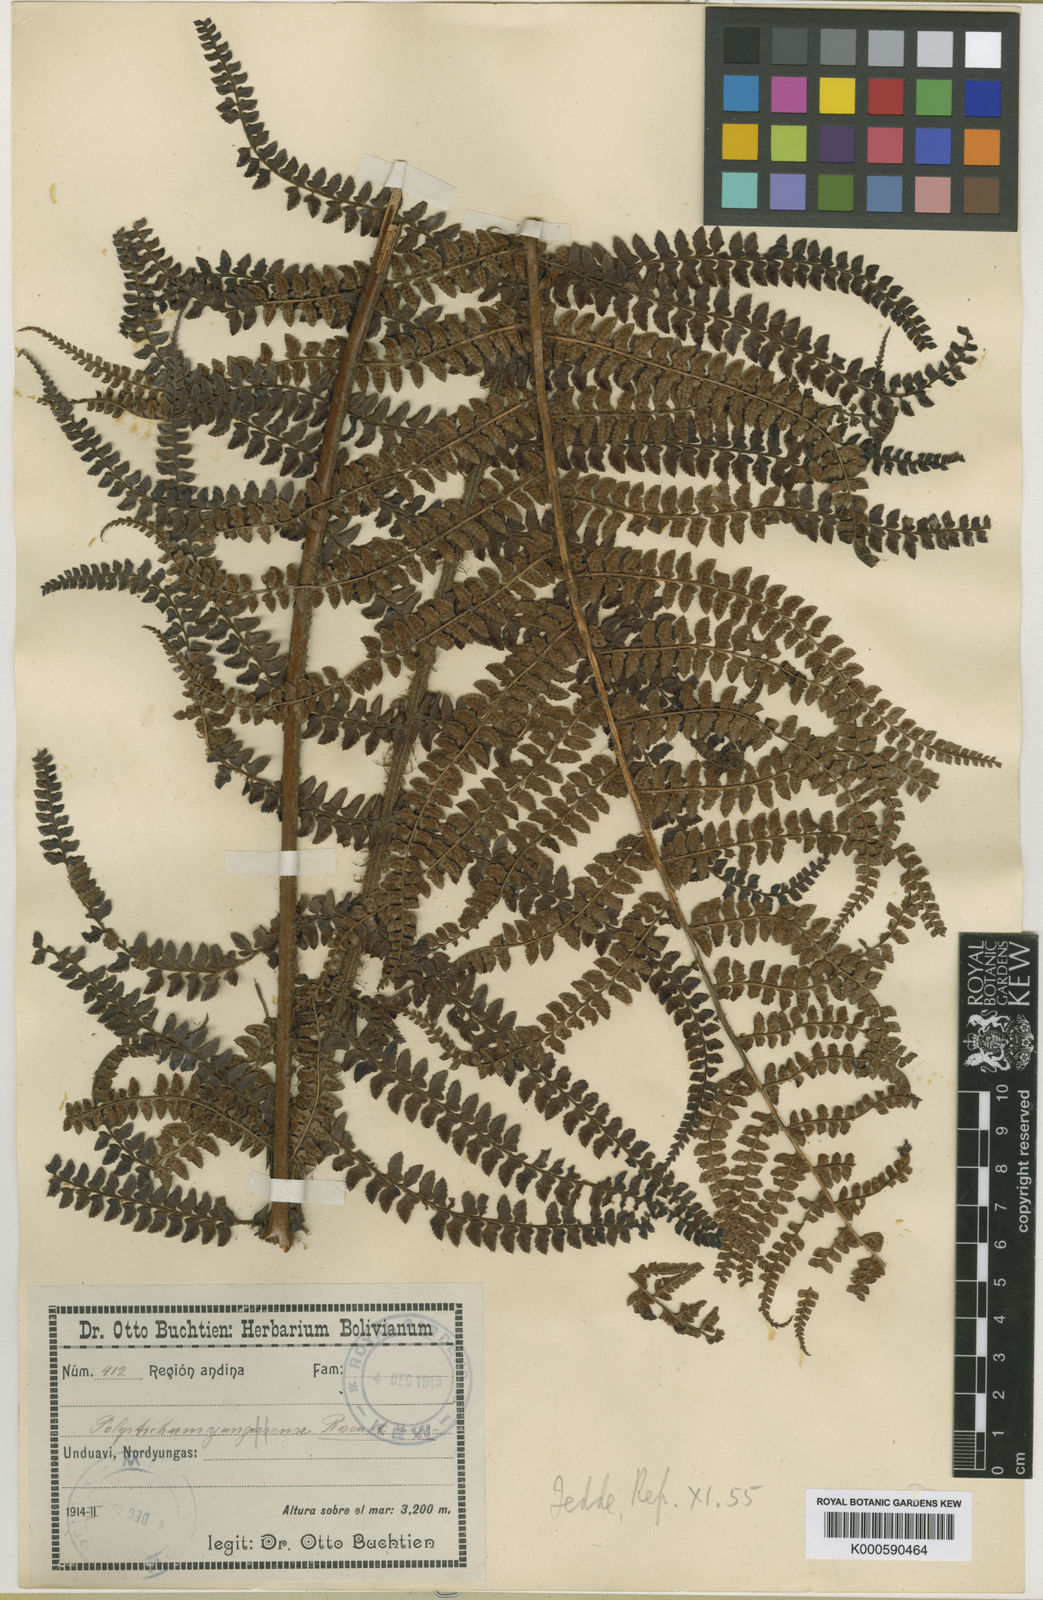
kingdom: Plantae
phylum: Tracheophyta
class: Polypodiopsida
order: Polypodiales
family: Dryopteridaceae
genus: Polystichum
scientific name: Polystichum lehmannii
